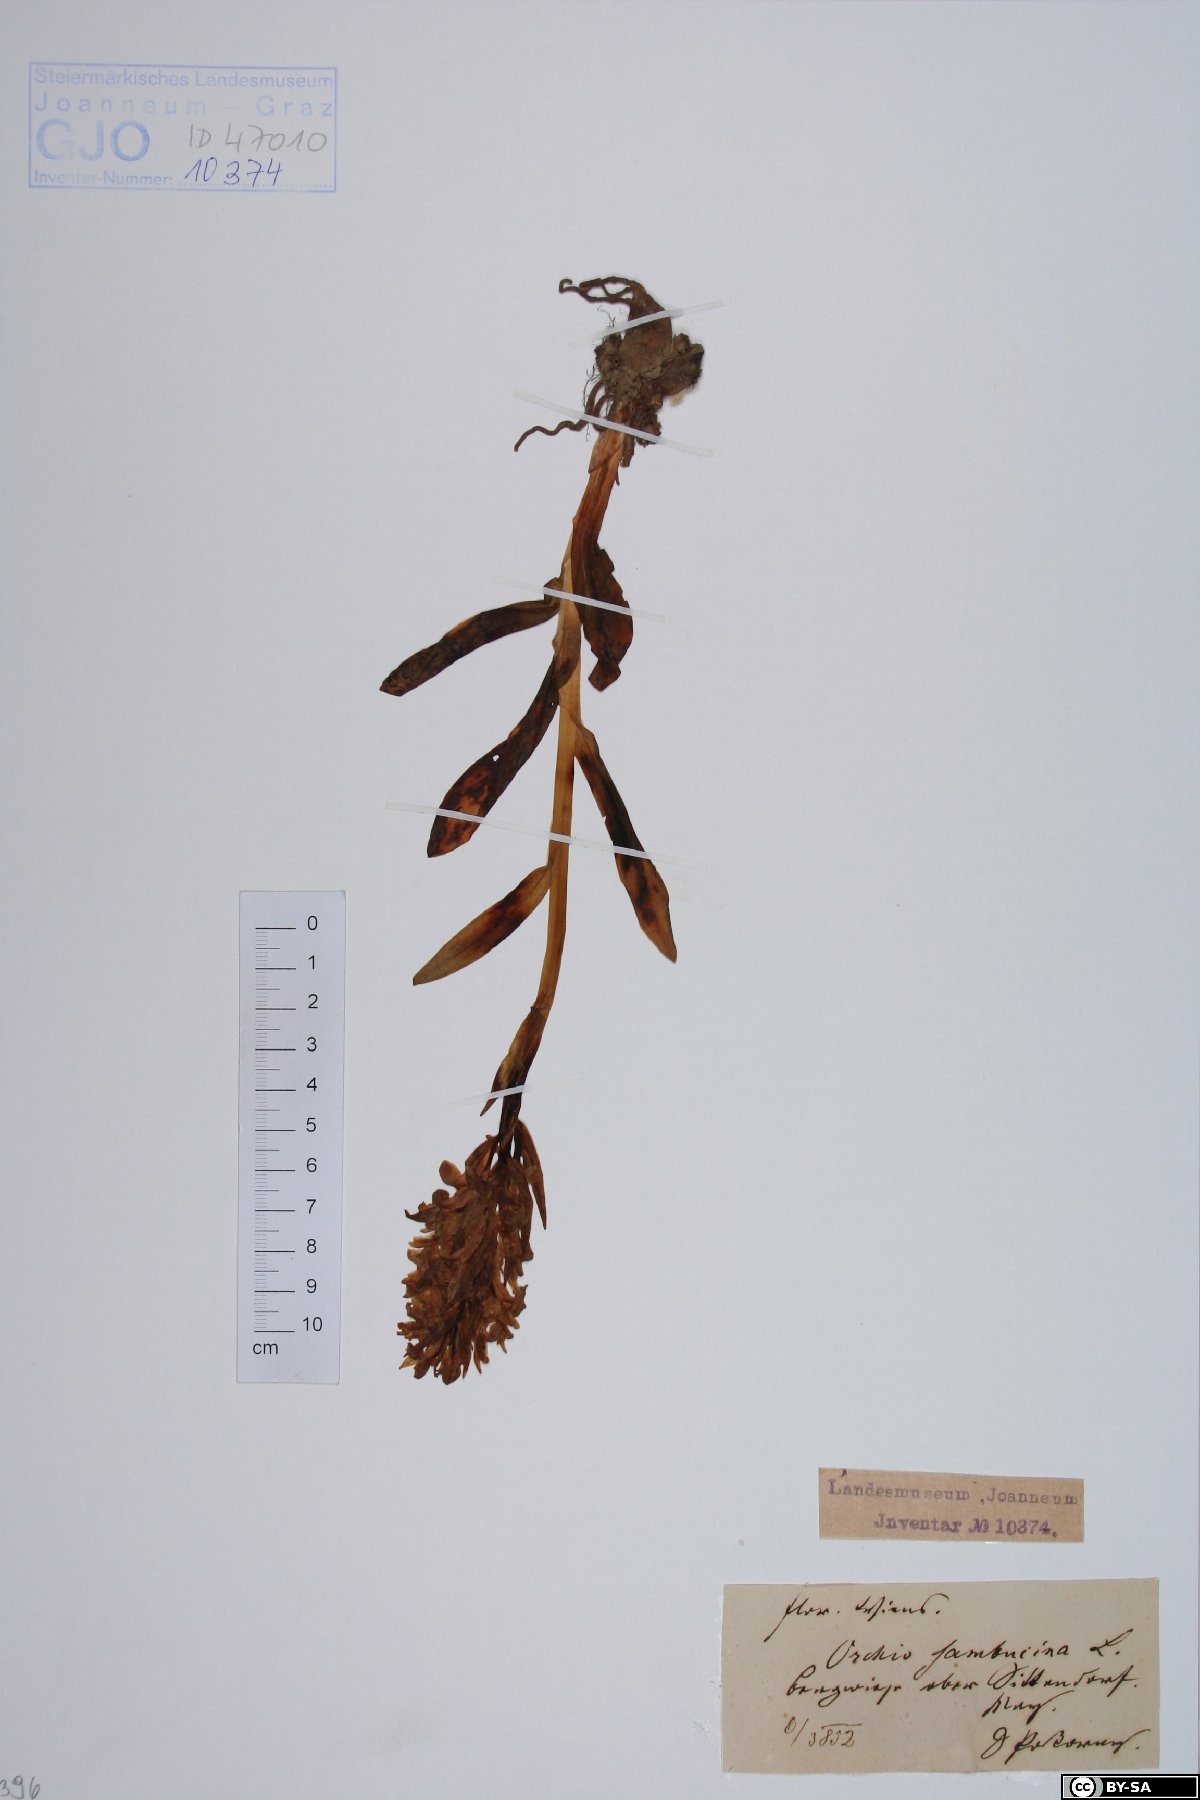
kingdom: Plantae
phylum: Tracheophyta
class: Liliopsida
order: Asparagales
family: Orchidaceae
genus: Dactylorhiza
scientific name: Dactylorhiza sambucina
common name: Elder-flowered orchid
